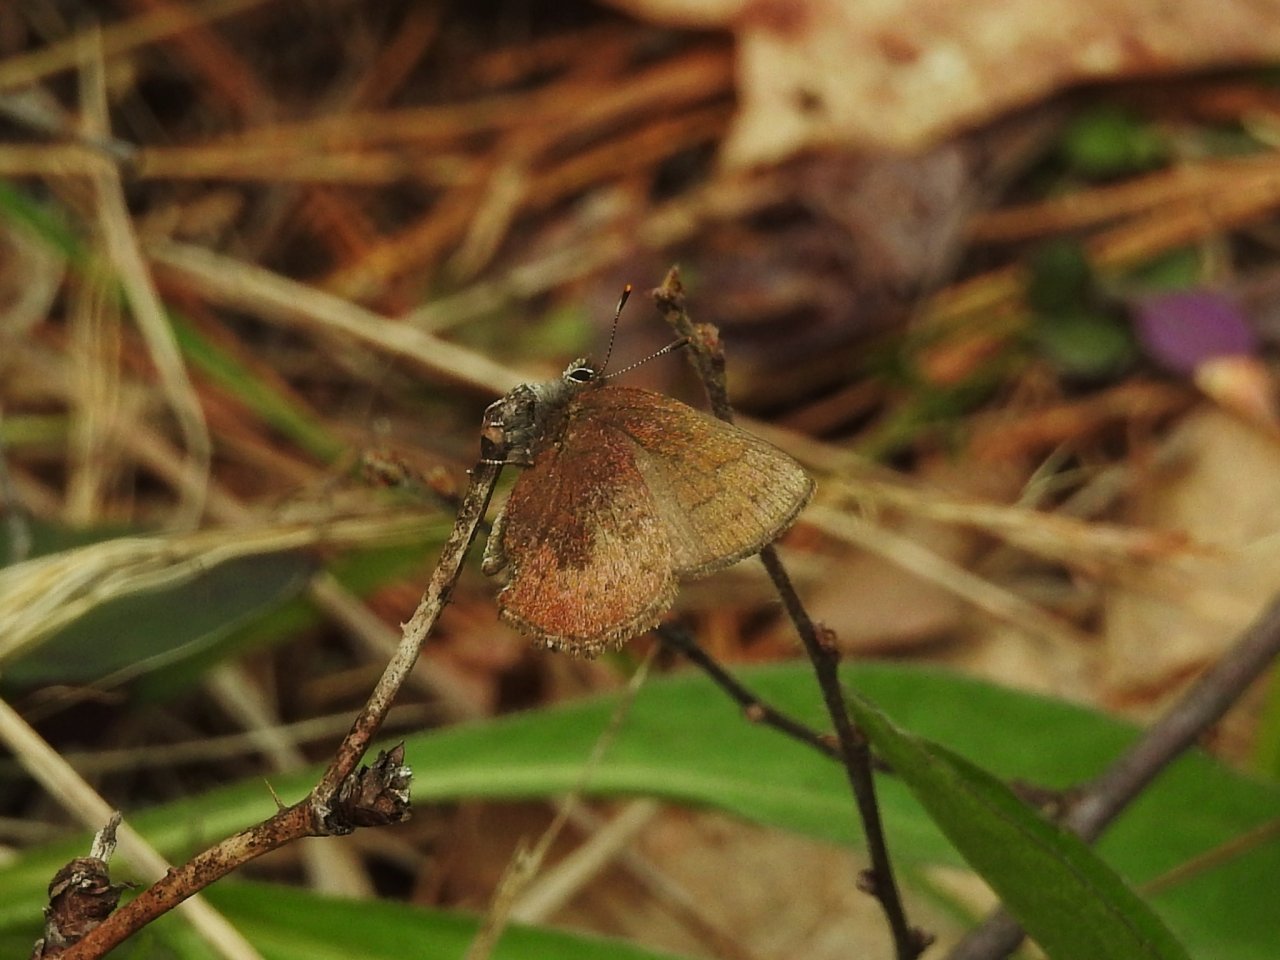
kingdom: Animalia
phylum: Arthropoda
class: Insecta
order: Lepidoptera
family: Lycaenidae
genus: Incisalia
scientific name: Incisalia irioides
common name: Brown Elfin
